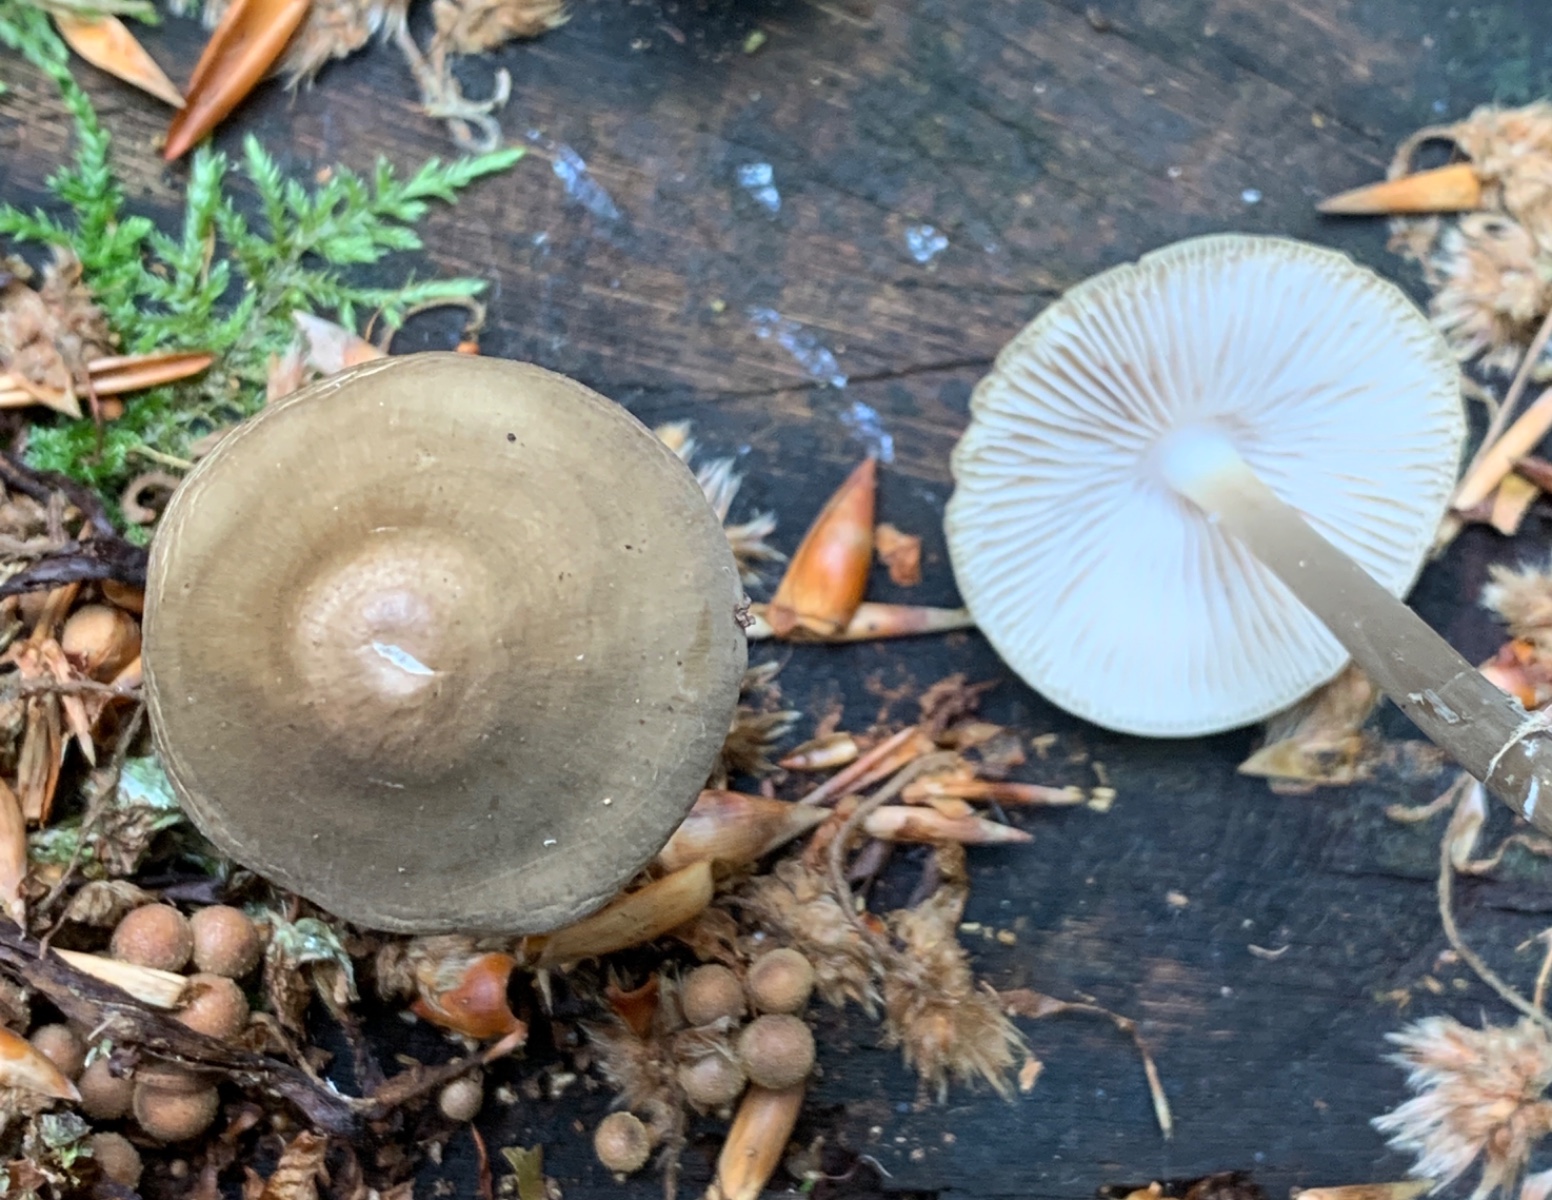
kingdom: Fungi
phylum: Basidiomycota
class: Agaricomycetes
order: Agaricales
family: Mycenaceae
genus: Mycena
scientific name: Mycena galericulata
